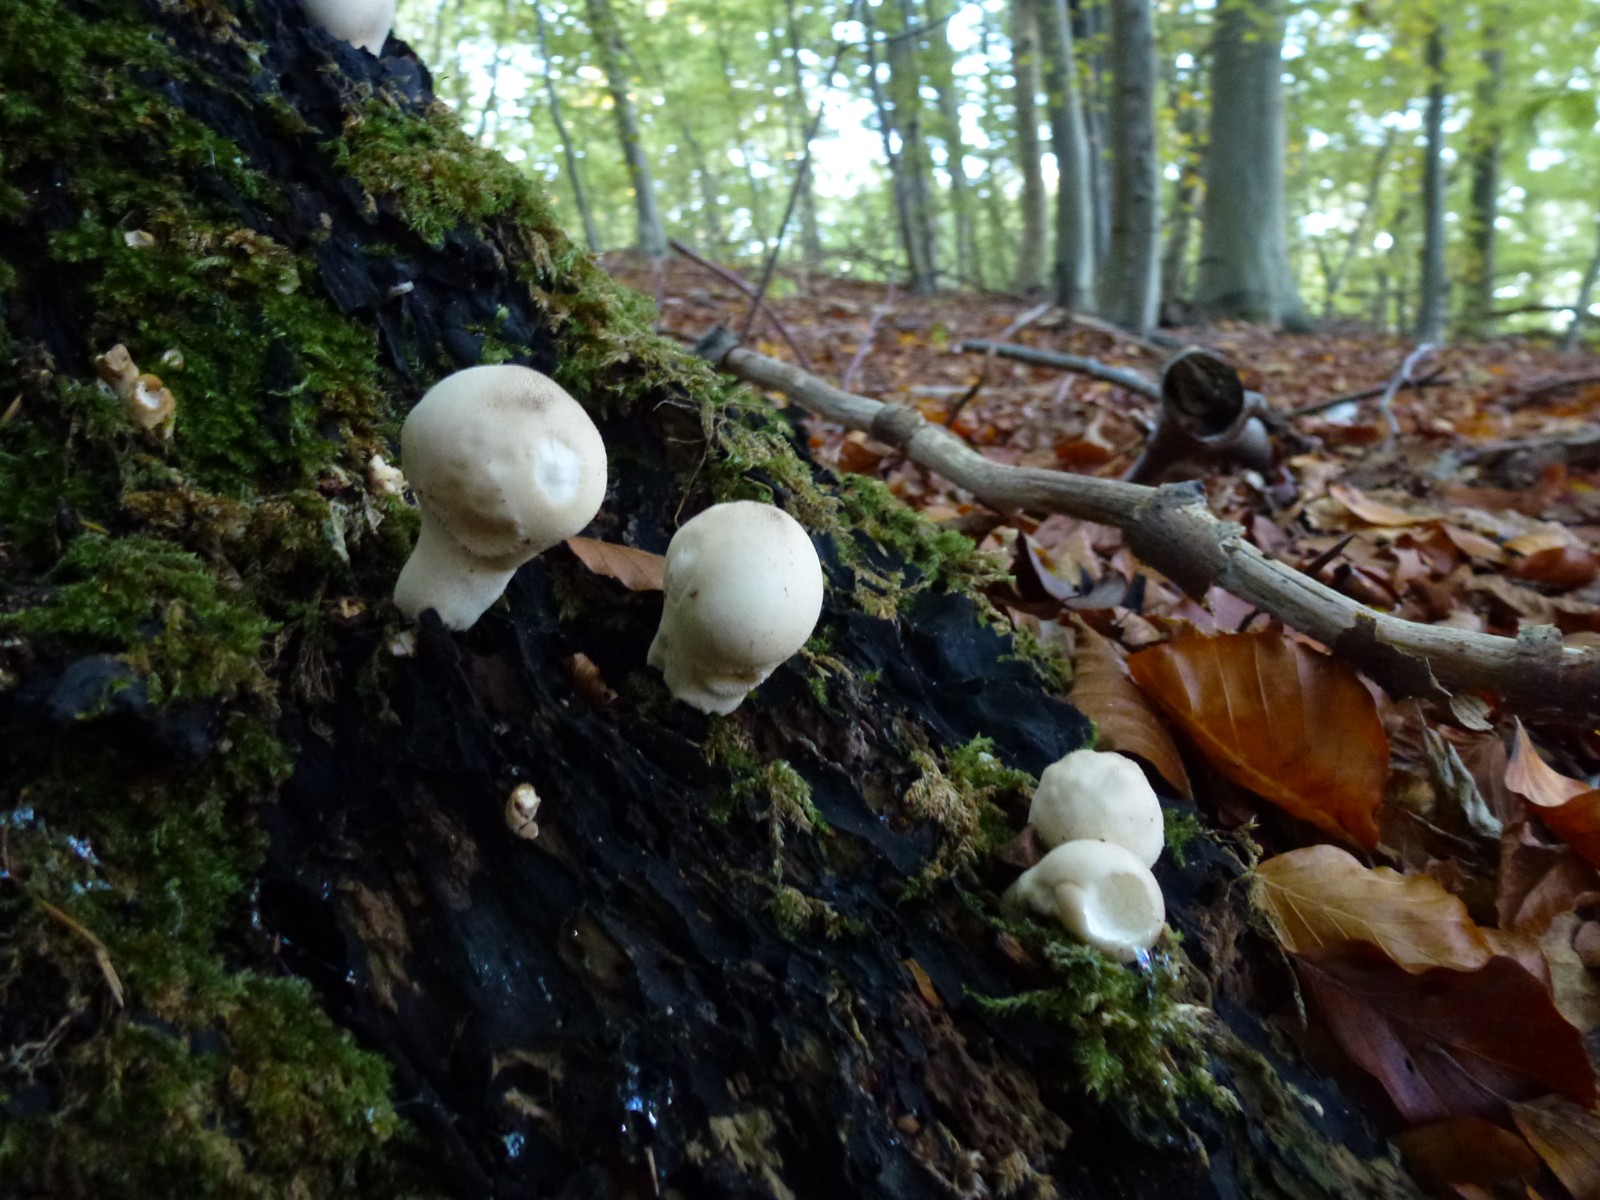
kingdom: Fungi
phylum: Basidiomycota
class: Agaricomycetes
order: Agaricales
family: Lycoperdaceae
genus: Apioperdon
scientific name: Apioperdon pyriforme
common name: pære-støvbold
